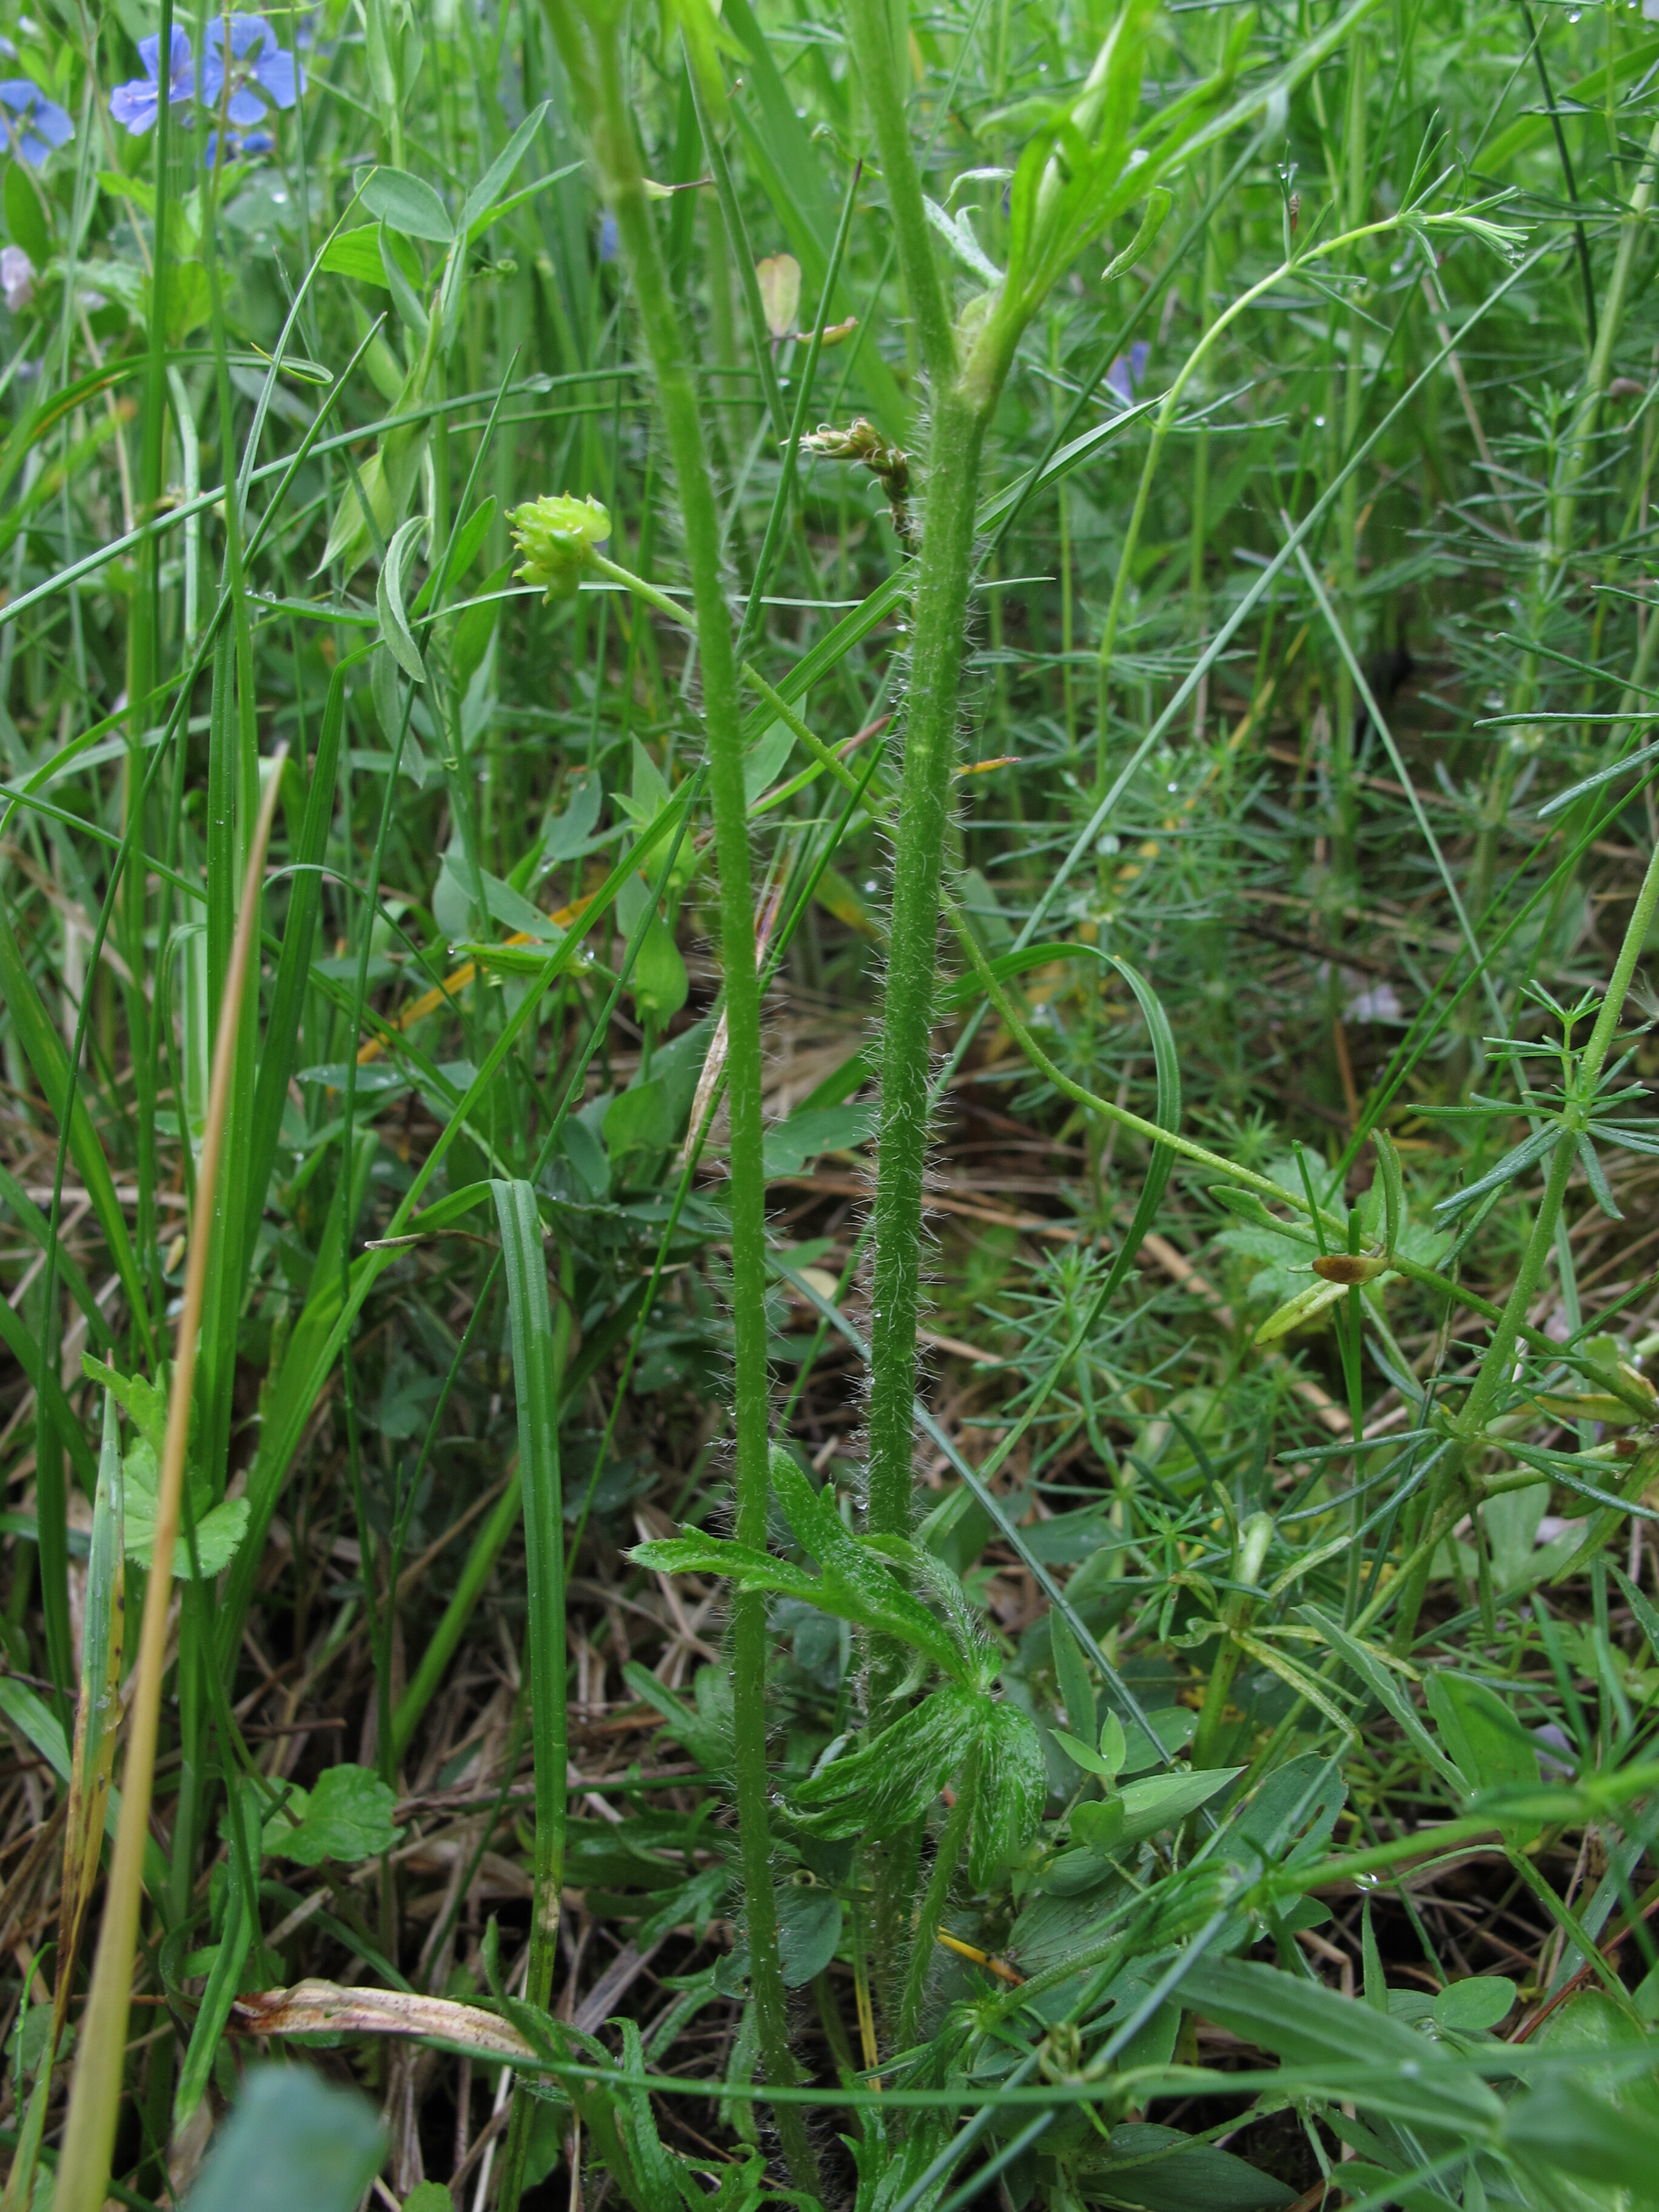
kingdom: Plantae
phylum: Tracheophyta
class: Magnoliopsida
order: Ranunculales
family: Ranunculaceae
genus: Ranunculus
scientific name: Ranunculus polyanthemos
